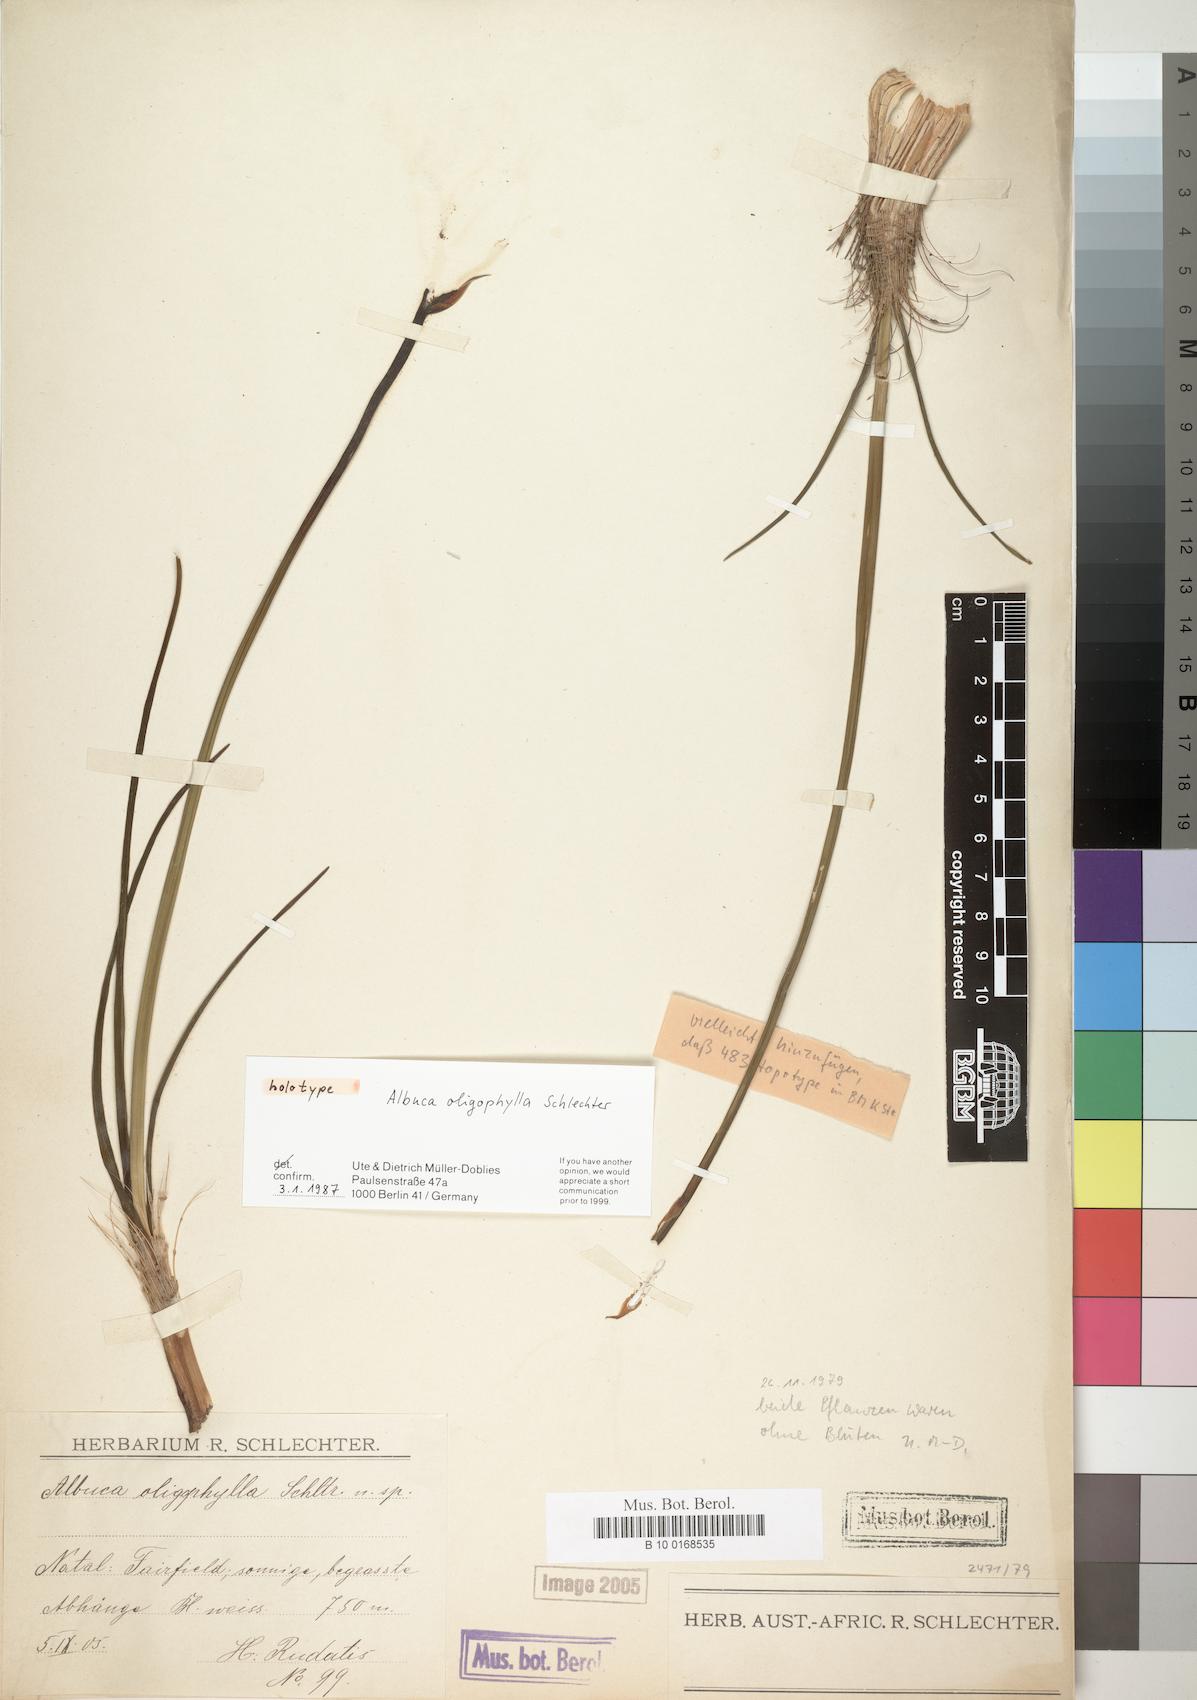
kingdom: Plantae
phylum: Tracheophyta
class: Liliopsida
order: Asparagales
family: Asparagaceae
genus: Albuca
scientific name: Albuca oligophylla
